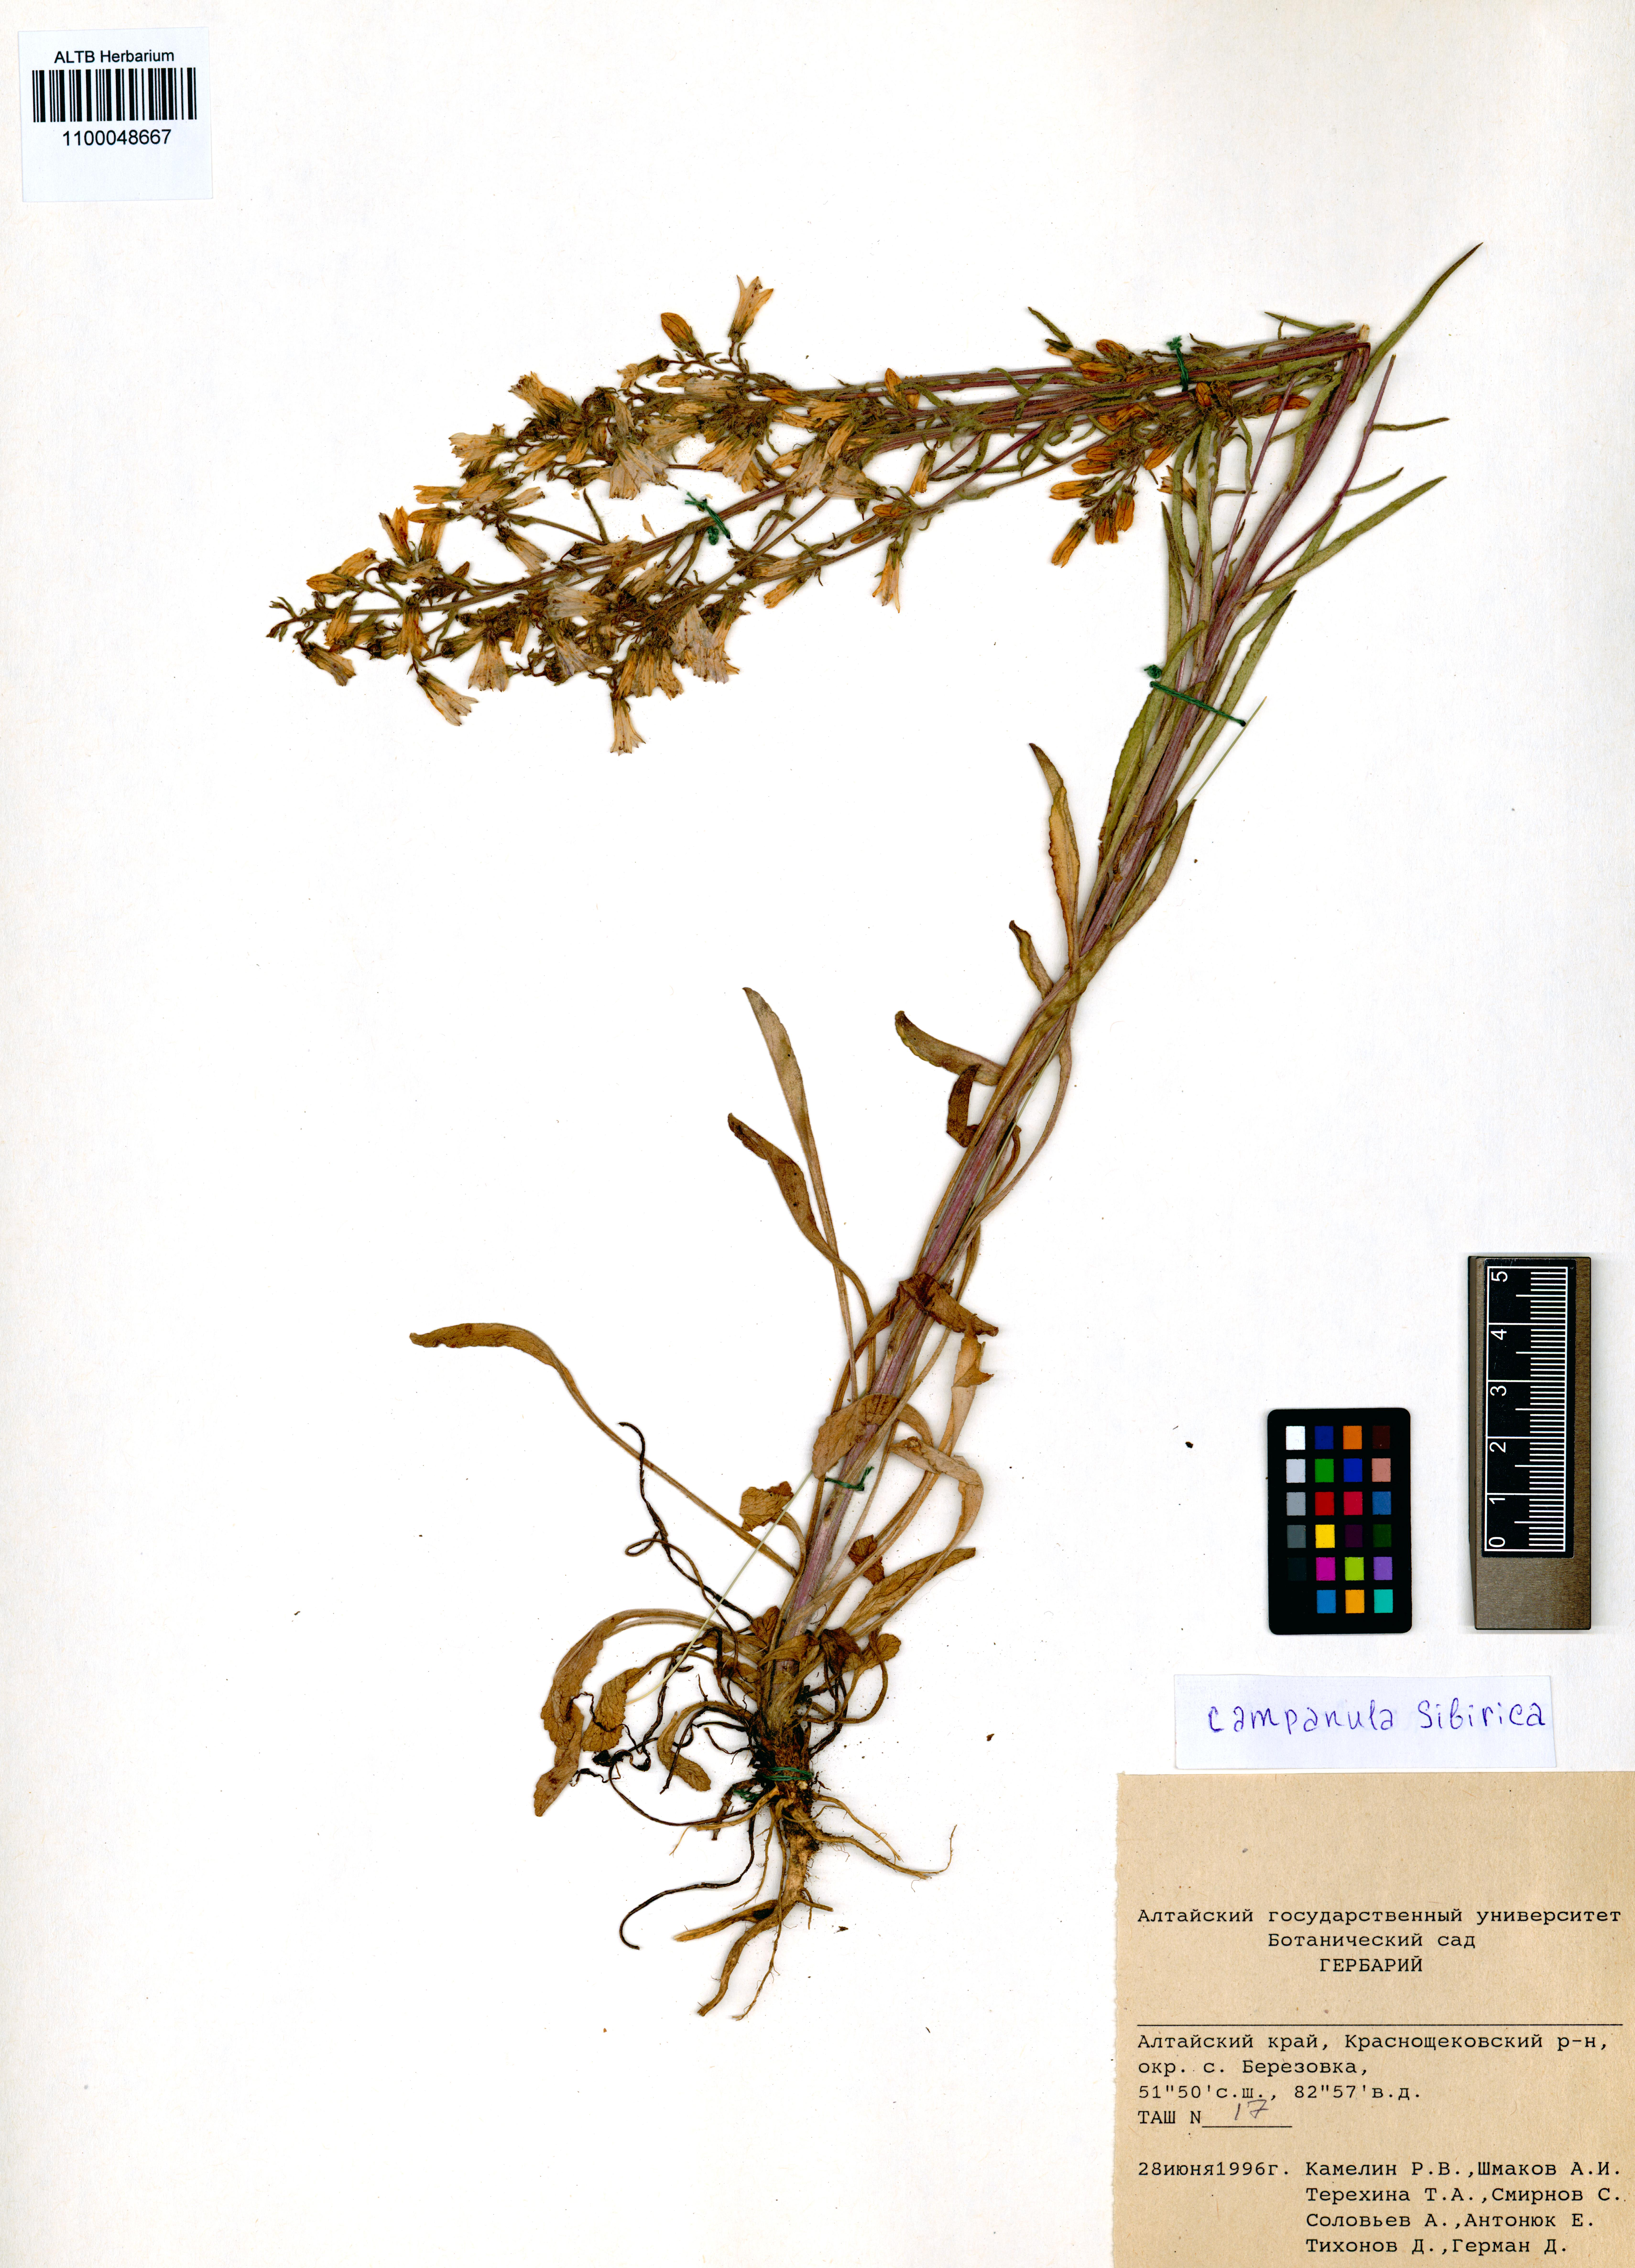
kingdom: Plantae
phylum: Tracheophyta
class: Magnoliopsida
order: Asterales
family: Campanulaceae
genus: Campanula
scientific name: Campanula sibirica
